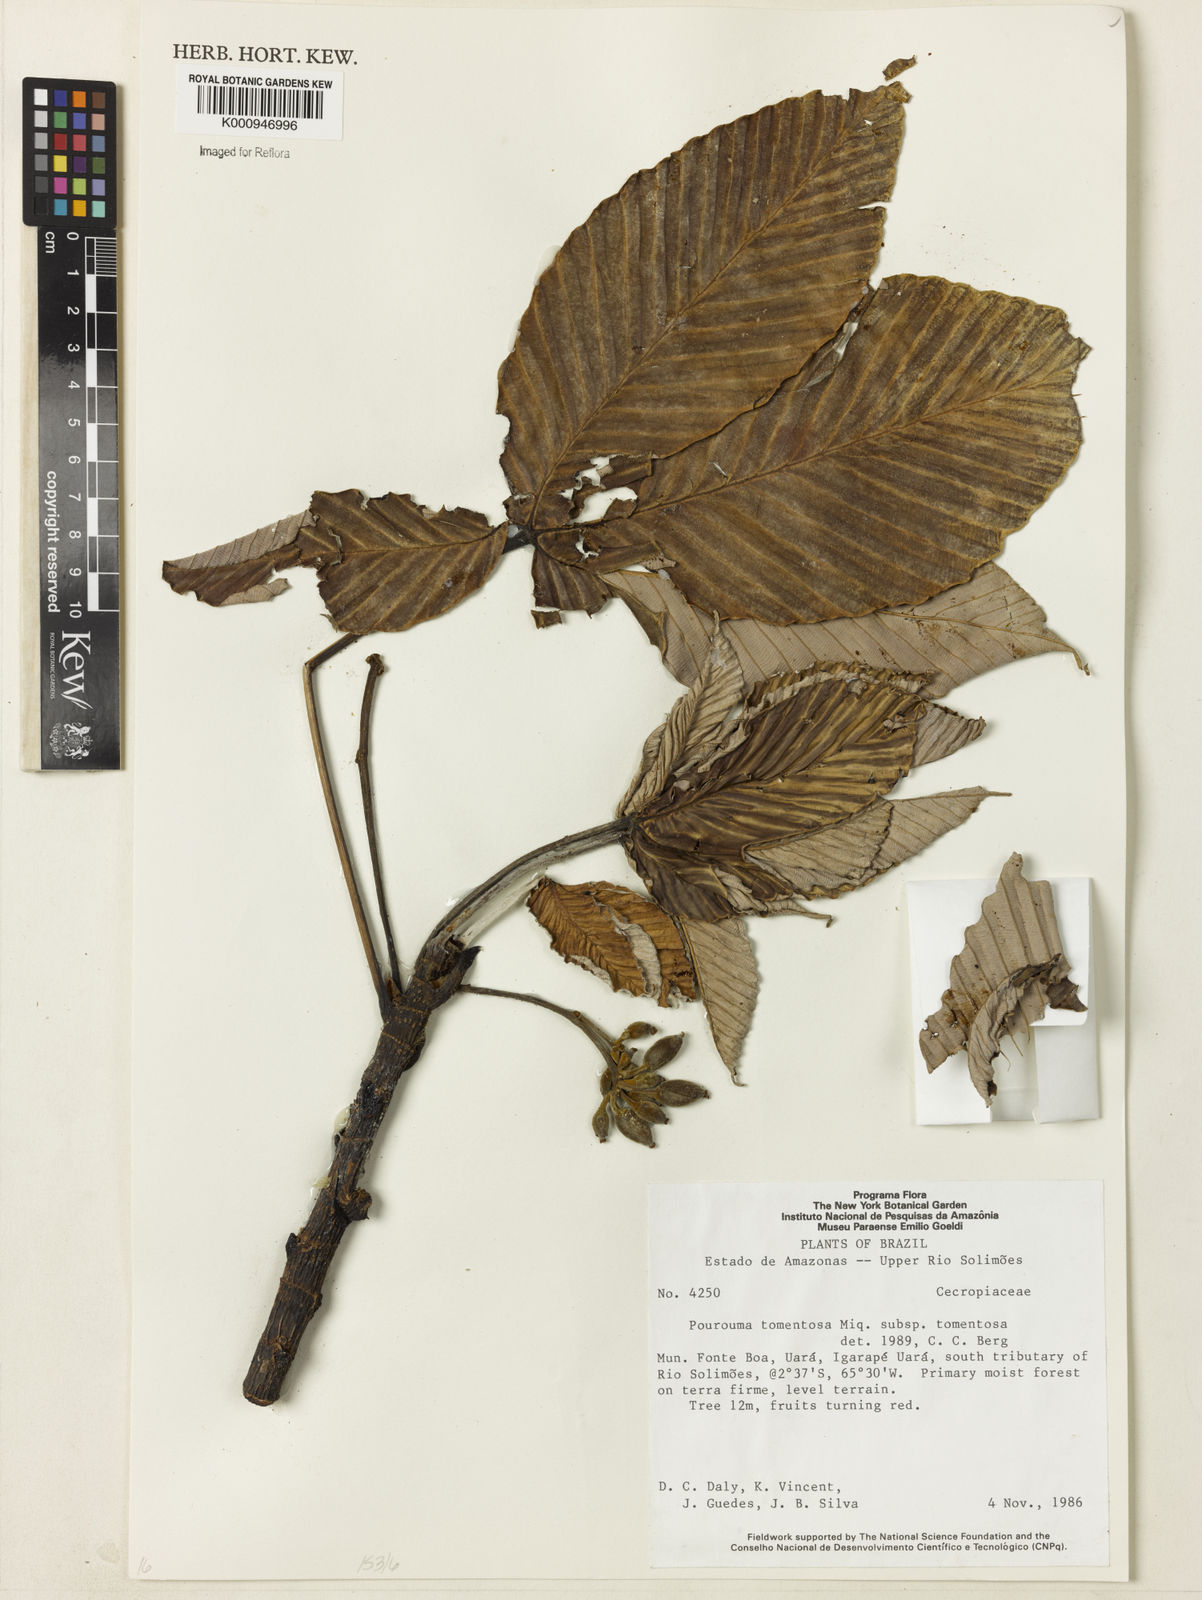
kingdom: Plantae
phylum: Tracheophyta
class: Magnoliopsida
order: Rosales
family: Urticaceae
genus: Pourouma
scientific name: Pourouma tomentosa
